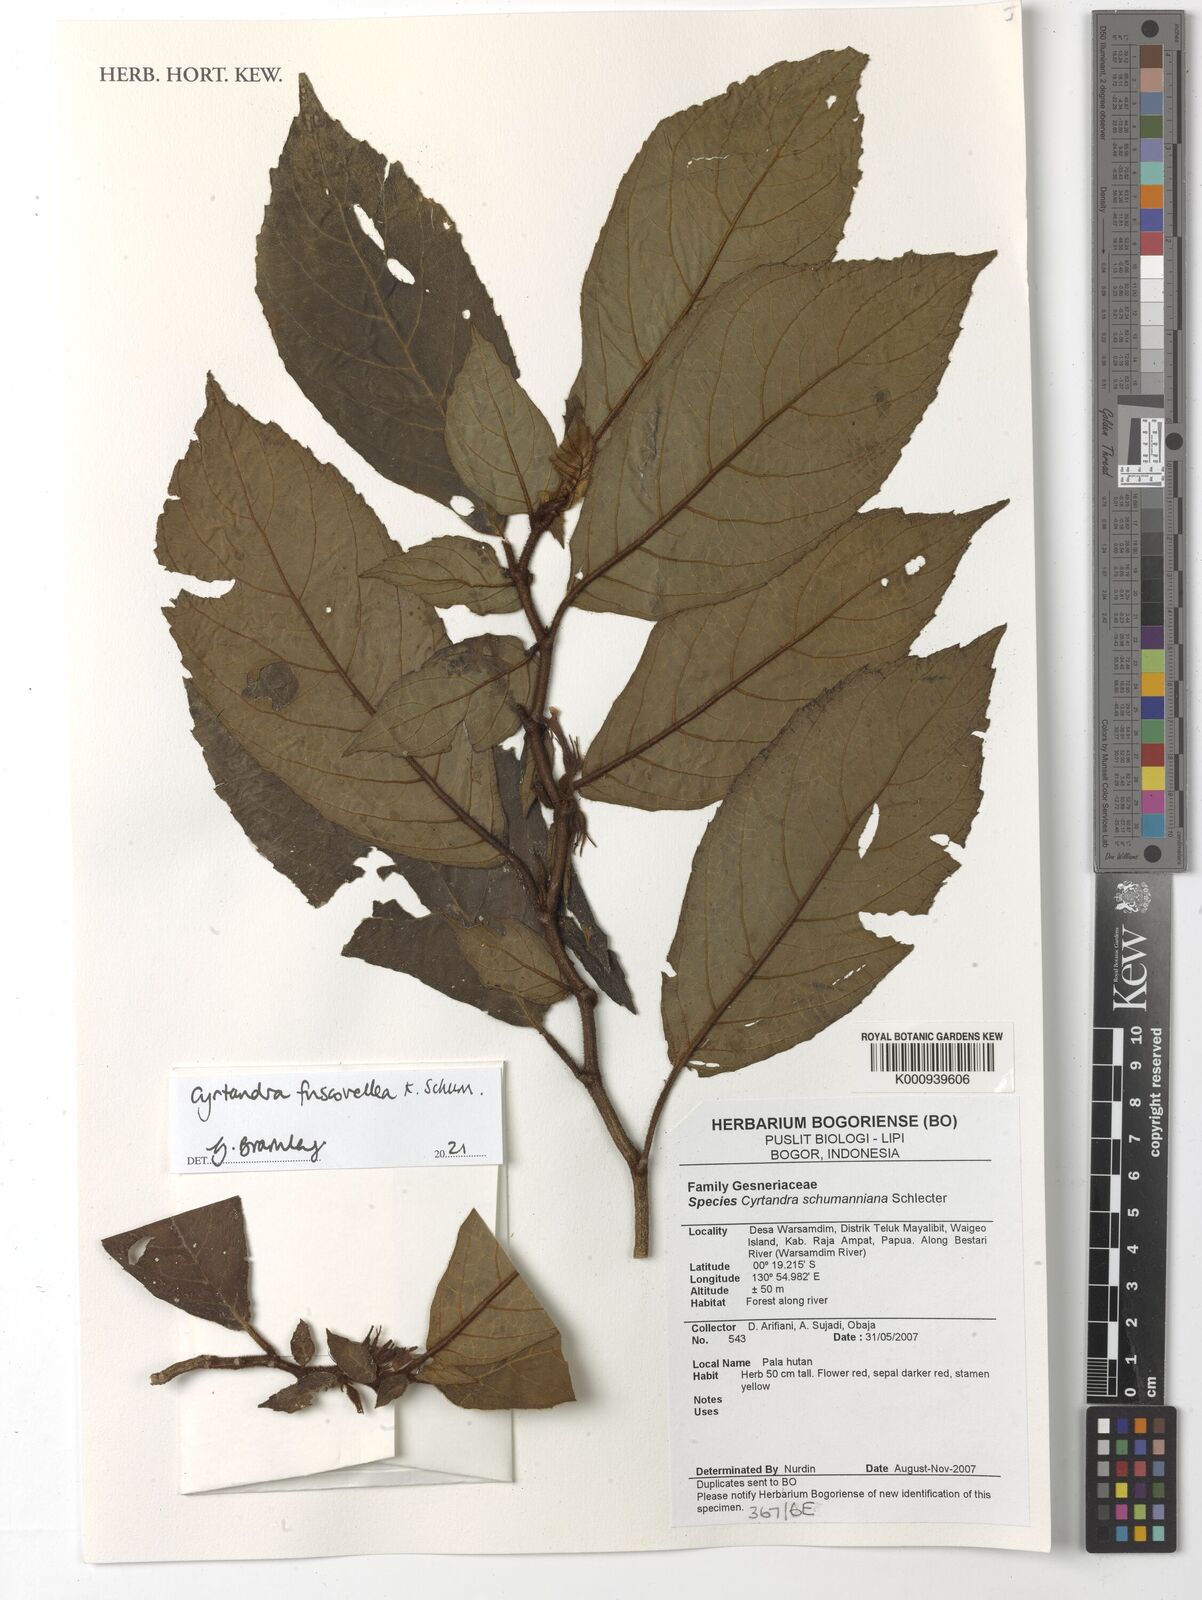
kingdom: Plantae
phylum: Tracheophyta
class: Magnoliopsida
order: Lamiales
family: Gesneriaceae
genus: Cyrtandra
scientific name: Cyrtandra schumanniana
